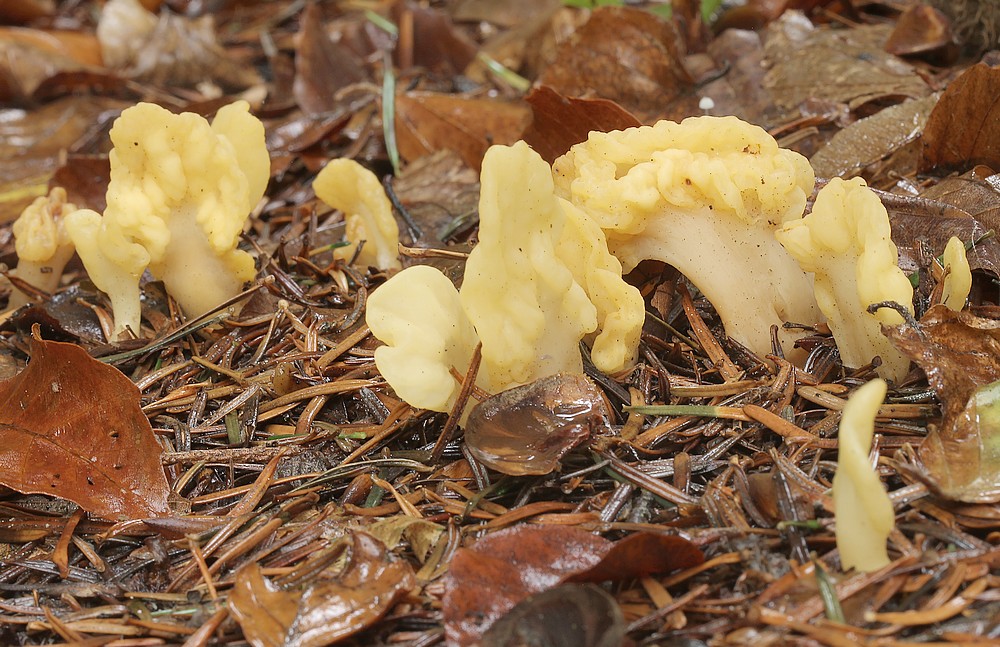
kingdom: Fungi
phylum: Ascomycota
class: Leotiomycetes
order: Rhytismatales
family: Cudoniaceae
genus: Spathularia
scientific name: Spathularia flavida
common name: gul spatelsvamp
